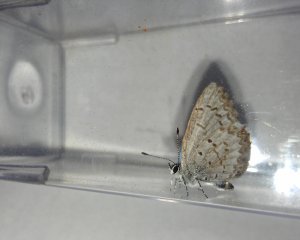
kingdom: Animalia
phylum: Arthropoda
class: Insecta
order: Lepidoptera
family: Lycaenidae
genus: Celastrina
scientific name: Celastrina lucia
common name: Northern Spring Azure
